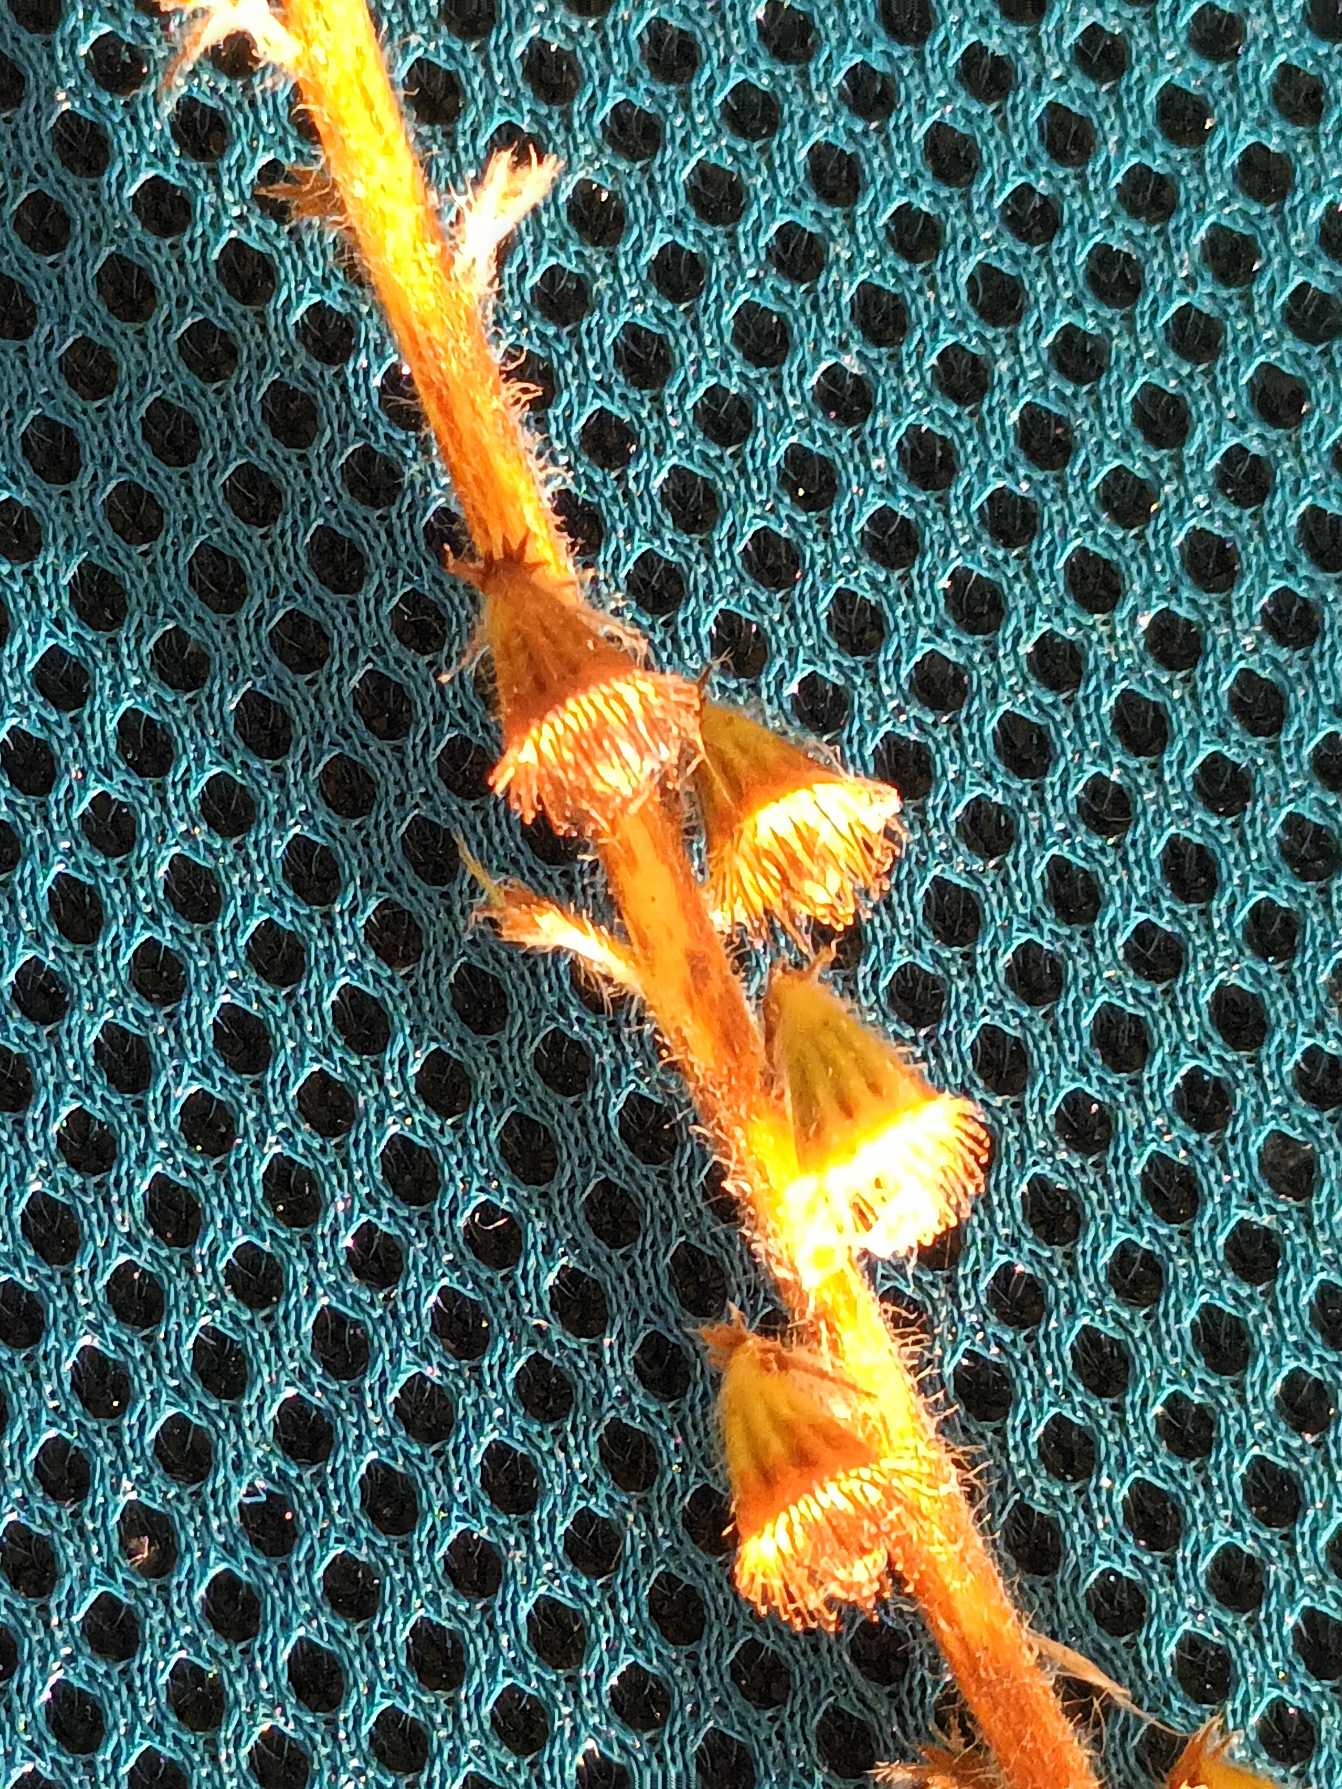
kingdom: Plantae
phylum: Tracheophyta
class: Magnoliopsida
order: Rosales
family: Rosaceae
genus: Agrimonia
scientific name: Agrimonia eupatoria
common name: Almindelig agermåne
